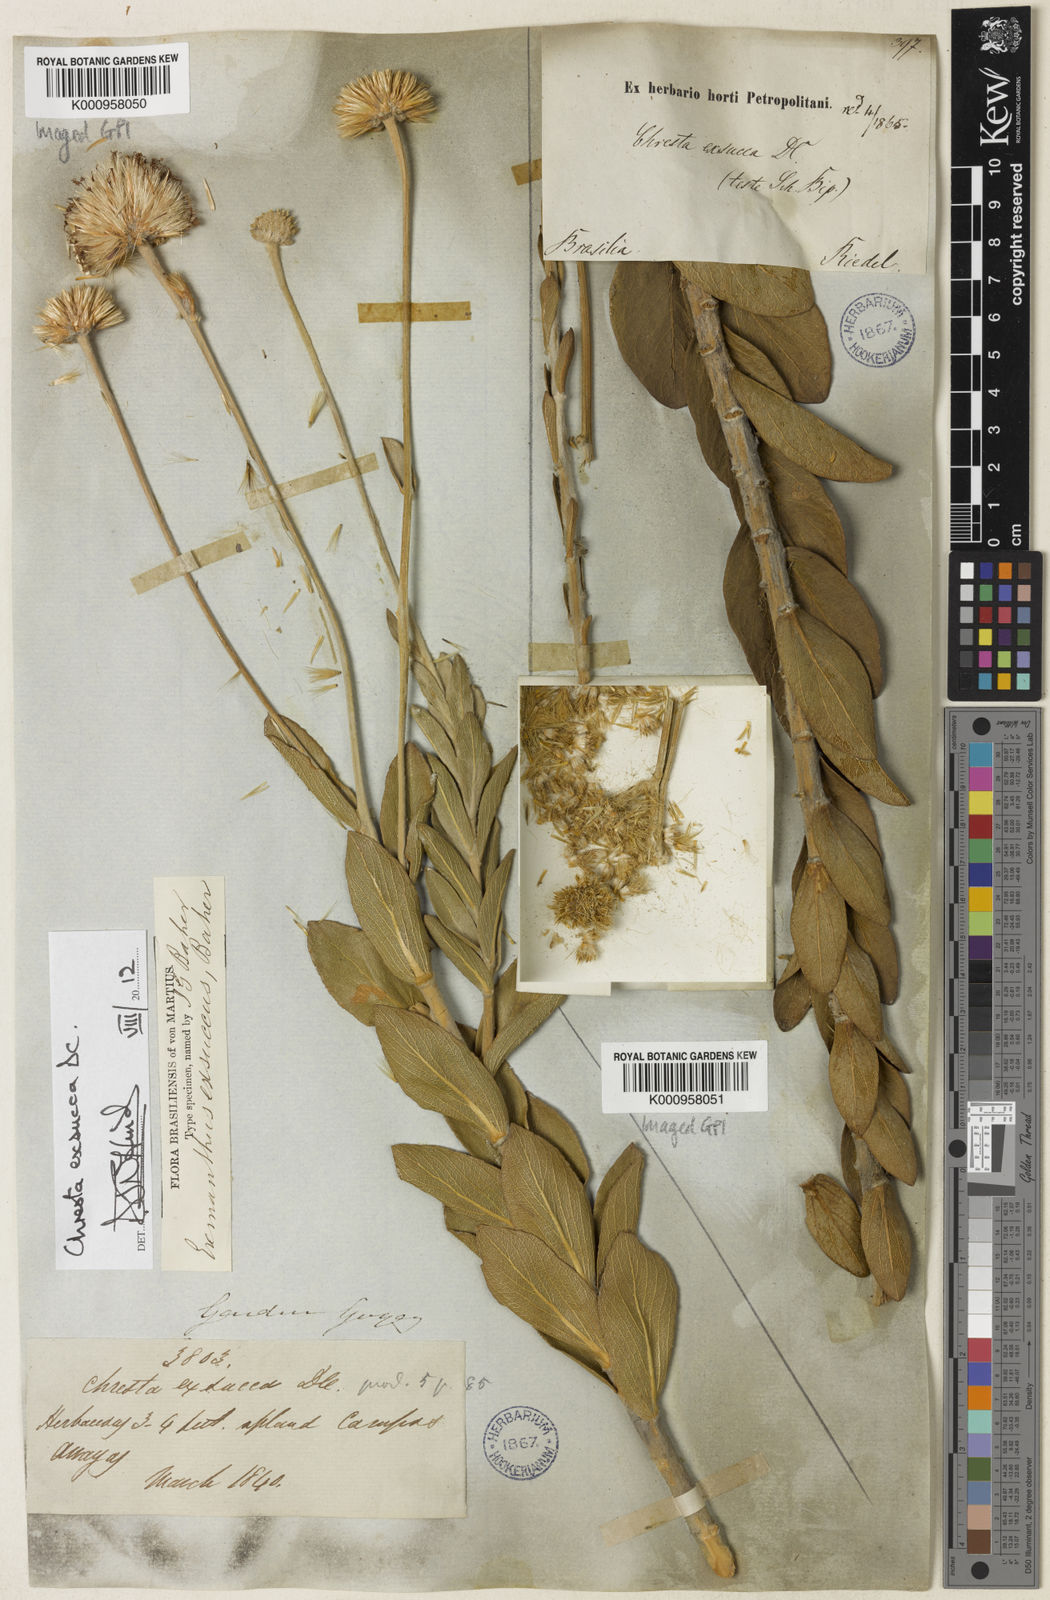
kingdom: Plantae
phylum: Tracheophyta
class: Magnoliopsida
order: Asterales
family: Asteraceae
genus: Chresta
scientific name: Chresta exsucca
